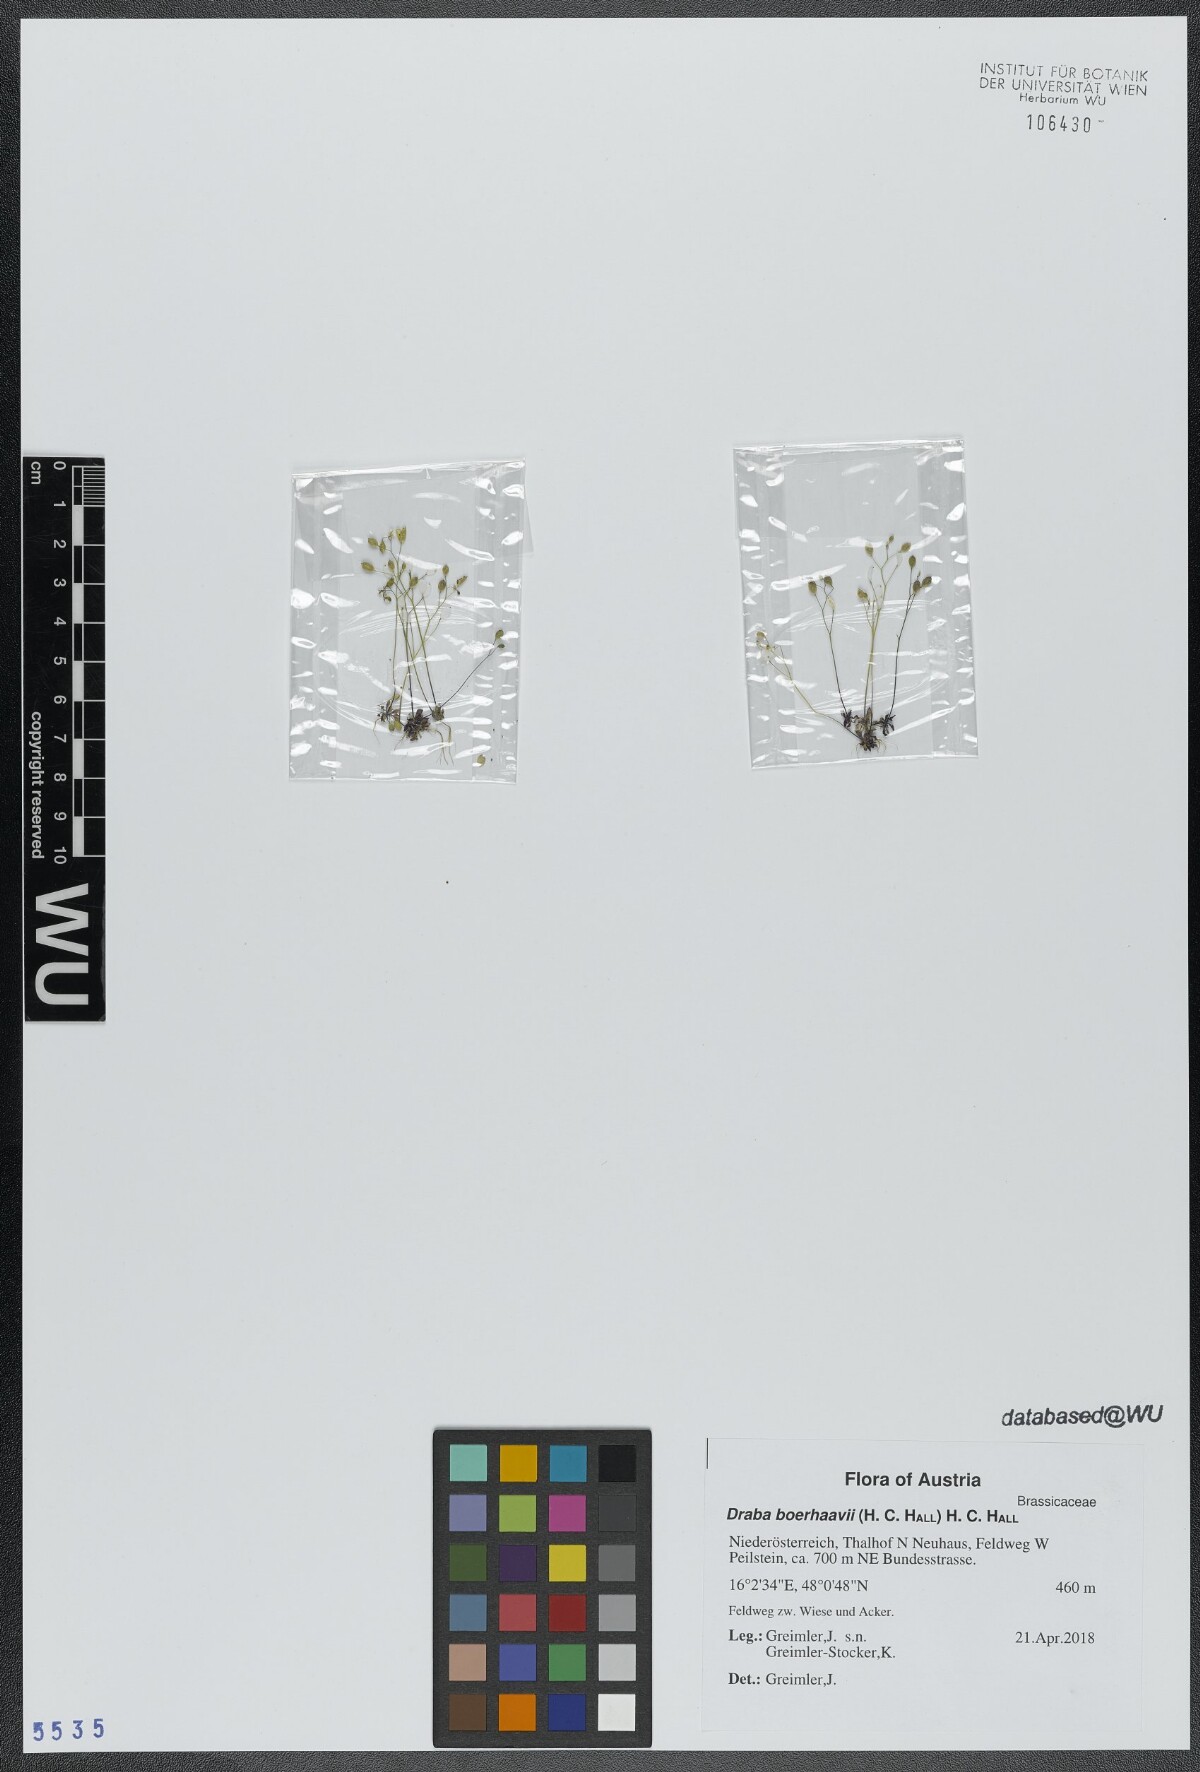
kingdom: Plantae
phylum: Tracheophyta
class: Magnoliopsida
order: Brassicales
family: Brassicaceae
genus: Draba
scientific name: Draba verna
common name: Spring draba
